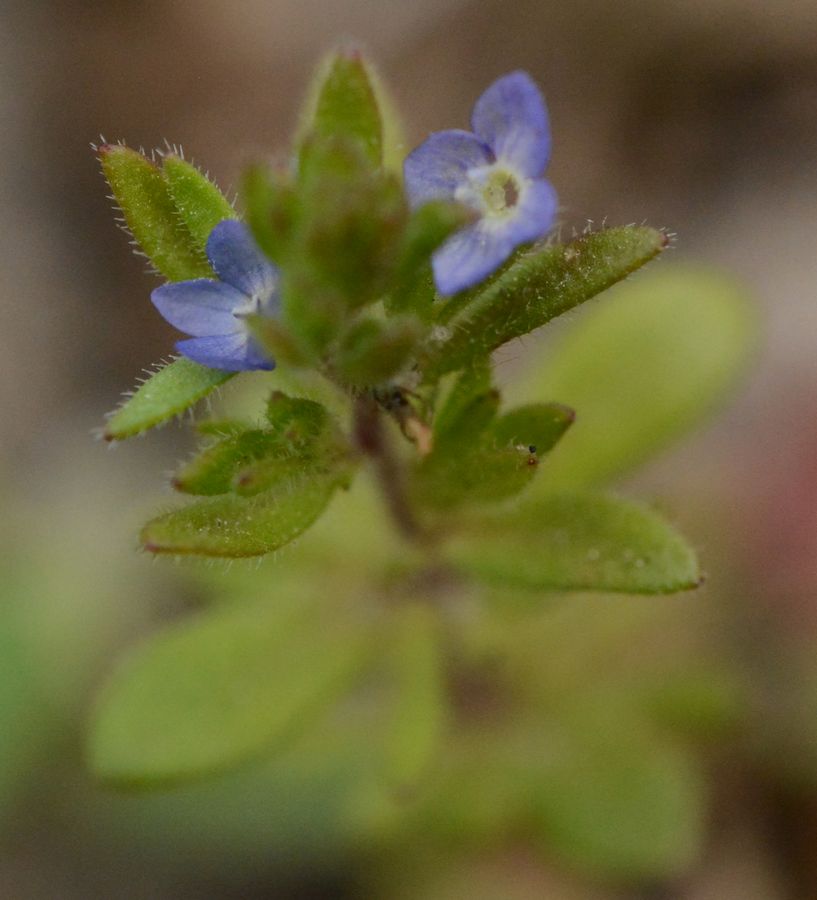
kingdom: Plantae
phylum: Tracheophyta
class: Magnoliopsida
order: Lamiales
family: Plantaginaceae
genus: Veronica
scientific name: Veronica verna
